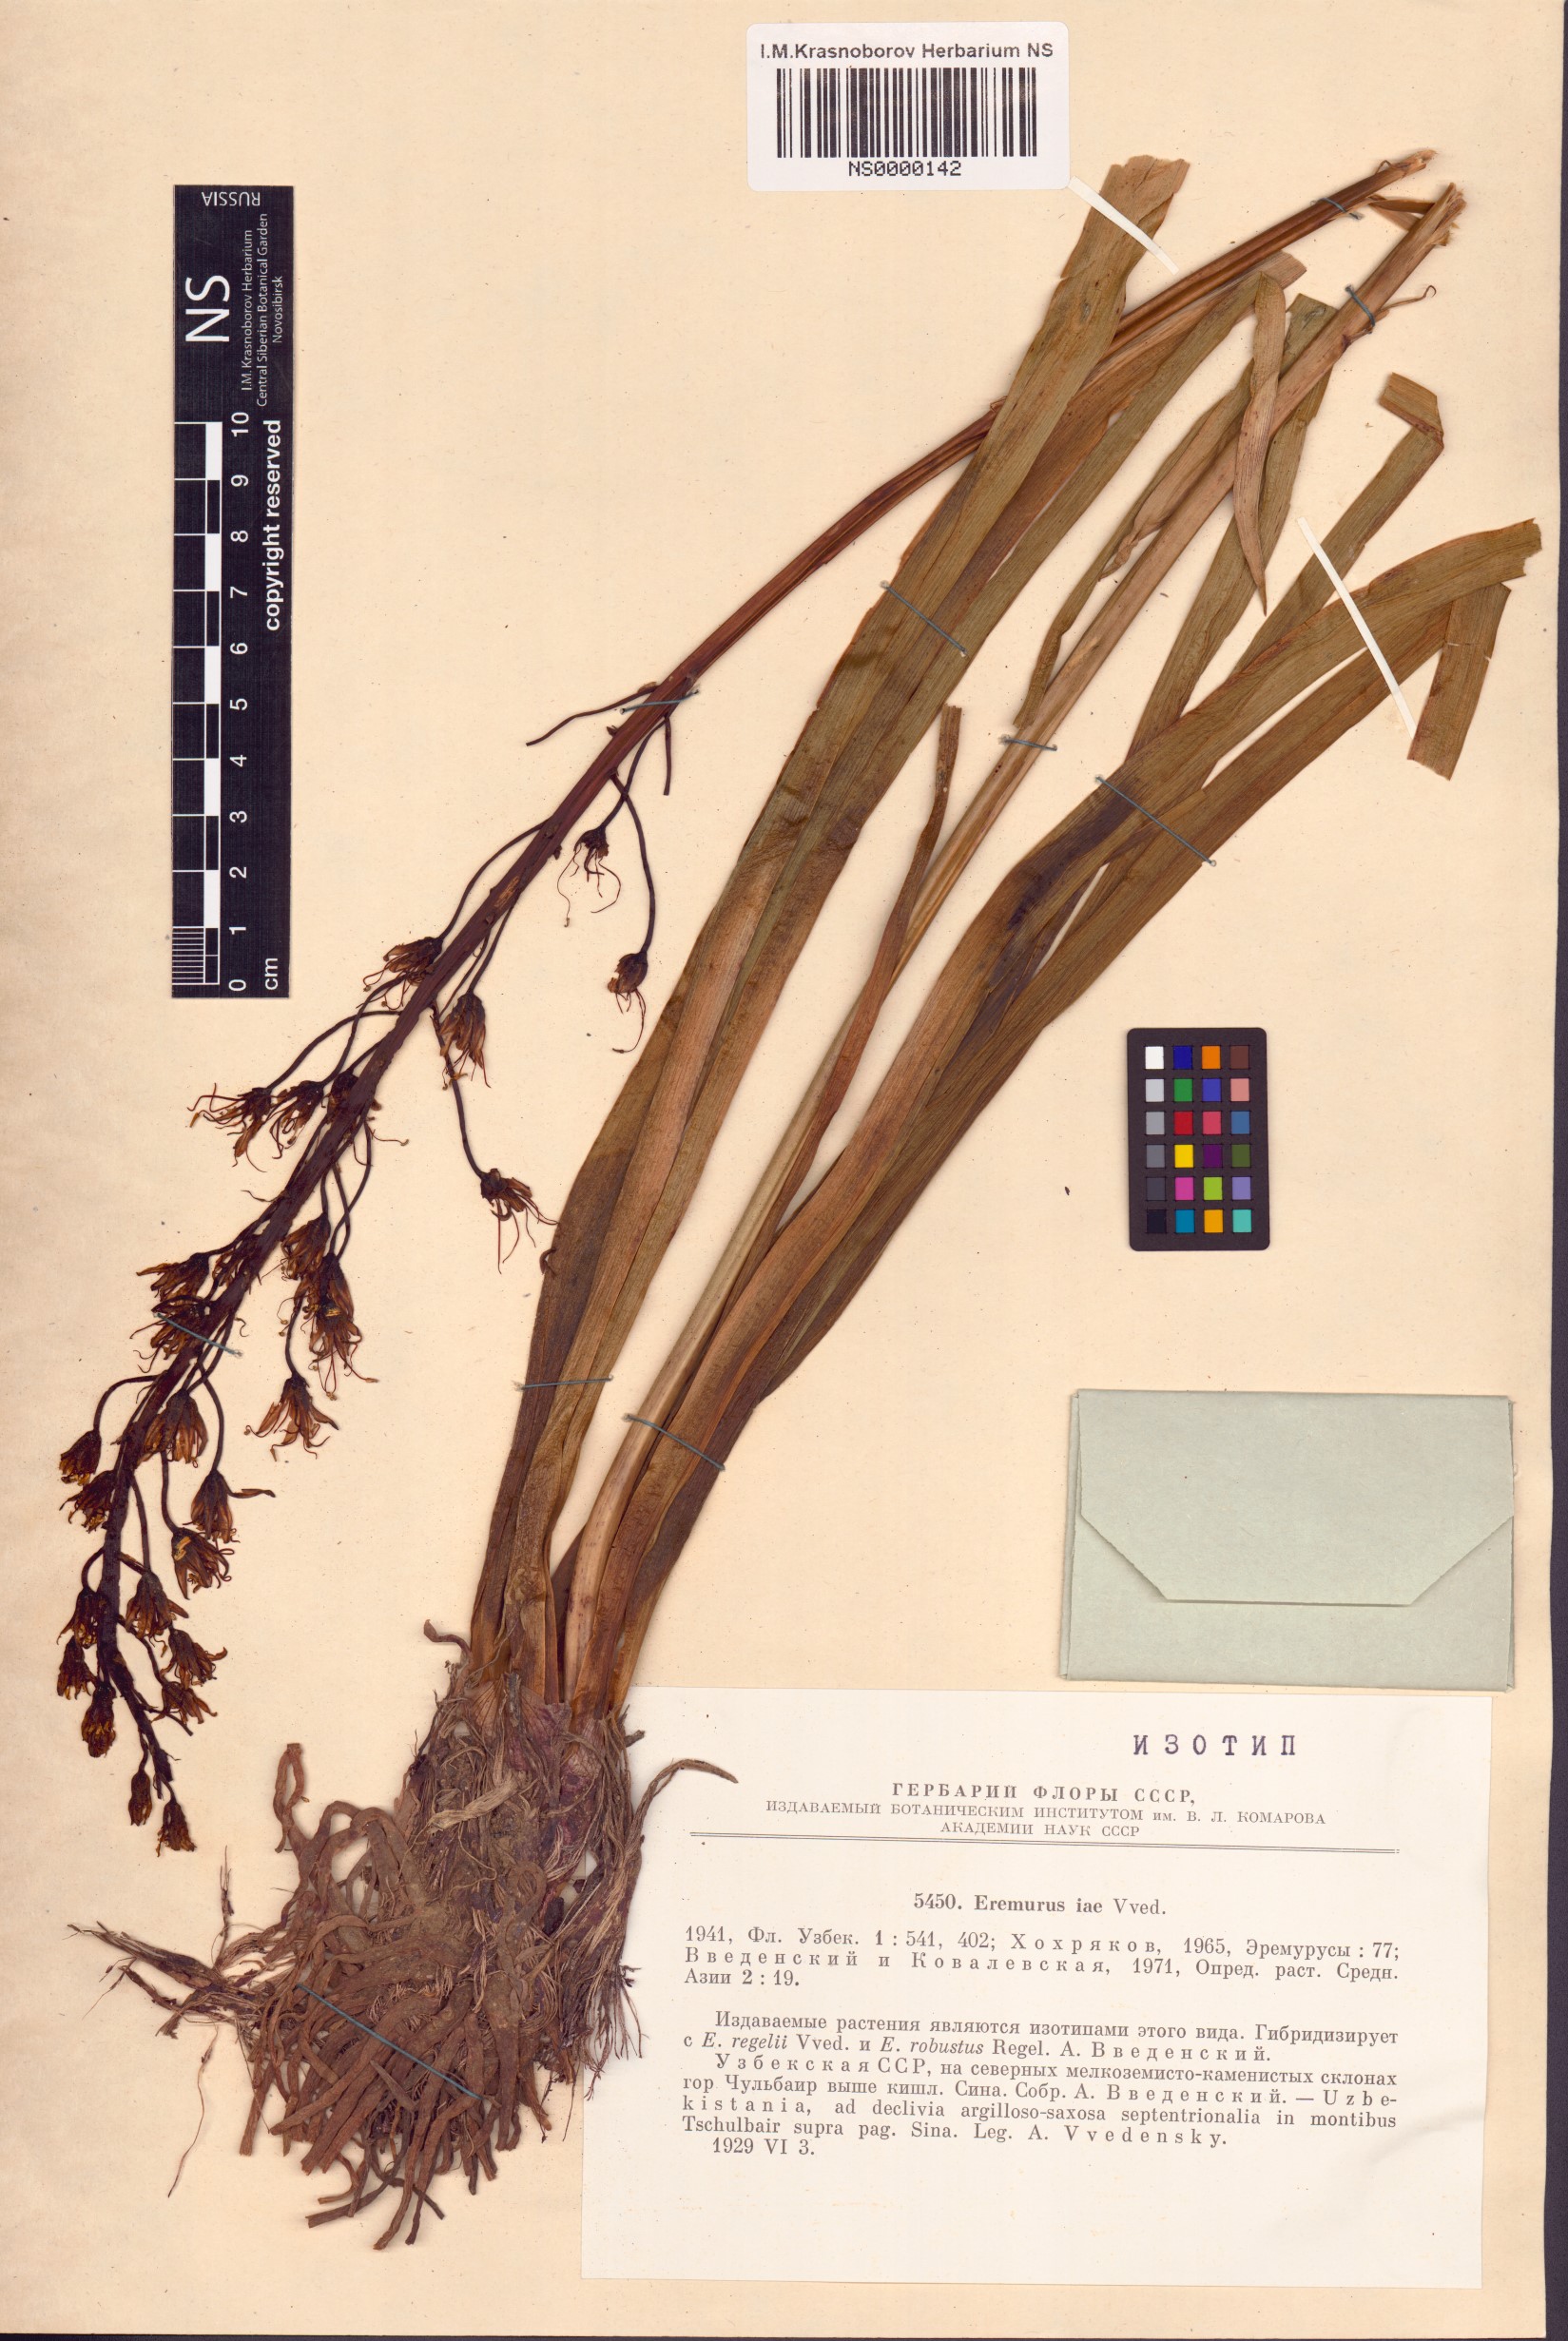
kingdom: Plantae
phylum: Tracheophyta
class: Liliopsida
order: Asparagales
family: Asphodelaceae
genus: Eremurus
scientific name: Eremurus iae
